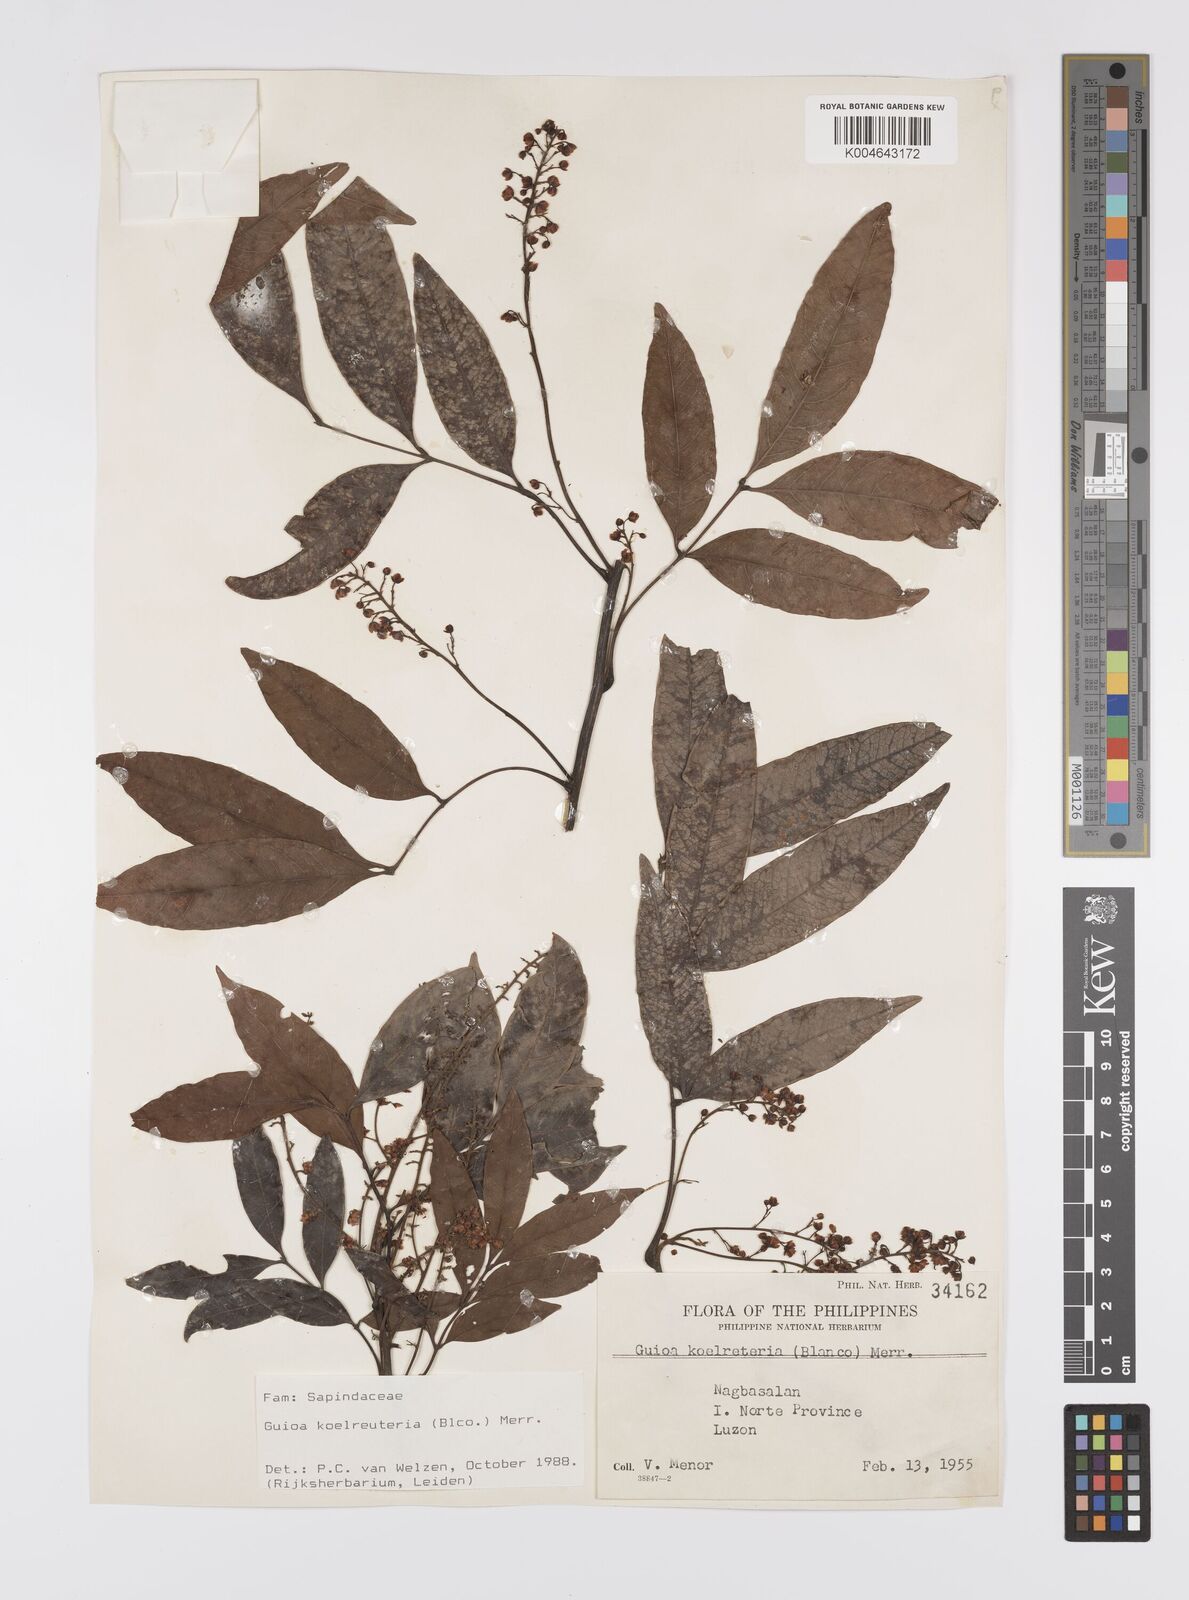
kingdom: Plantae
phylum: Tracheophyta
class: Magnoliopsida
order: Sapindales
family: Sapindaceae
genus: Guioa
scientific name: Guioa koelreuteria
